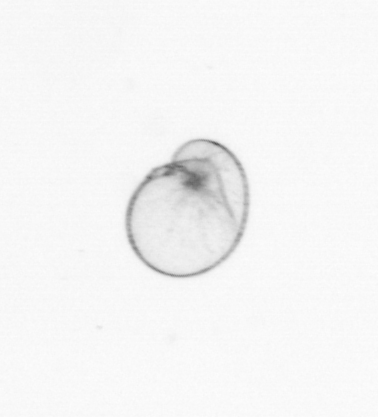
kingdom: Chromista
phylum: Myzozoa
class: Dinophyceae
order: Noctilucales
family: Noctilucaceae
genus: Noctiluca
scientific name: Noctiluca scintillans
